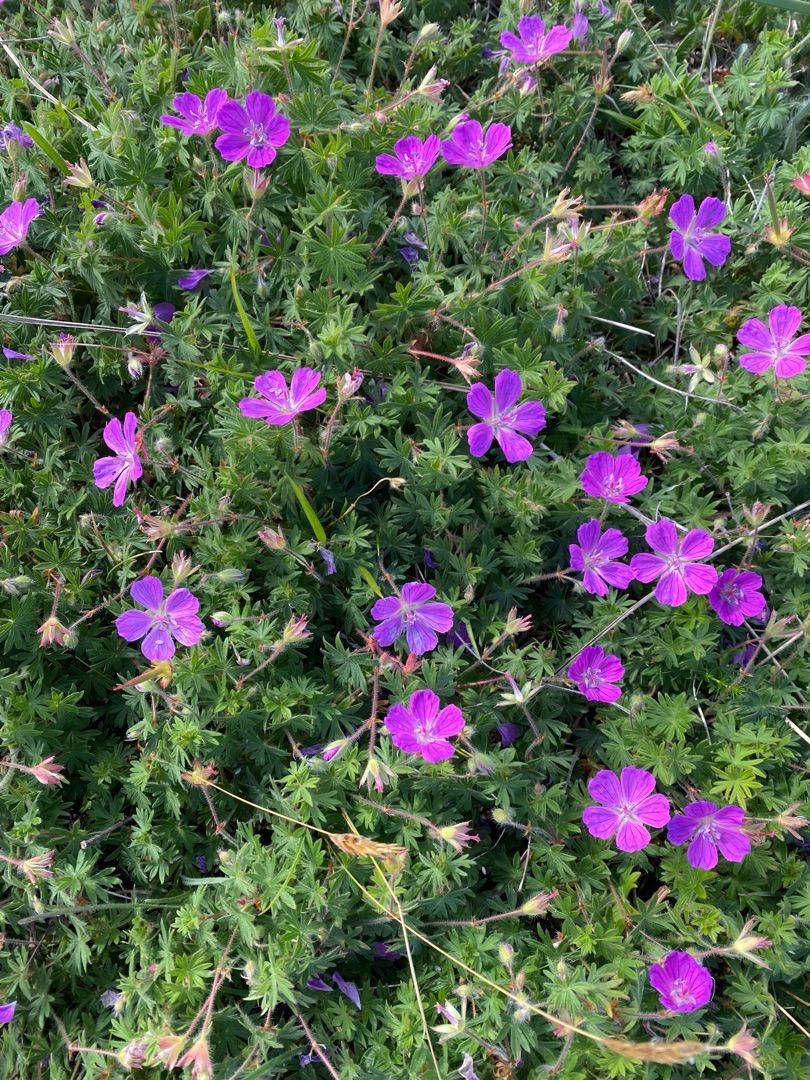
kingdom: Plantae
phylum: Tracheophyta
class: Magnoliopsida
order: Geraniales
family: Geraniaceae
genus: Geranium
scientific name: Geranium sanguineum
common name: Blodrød storkenæb
